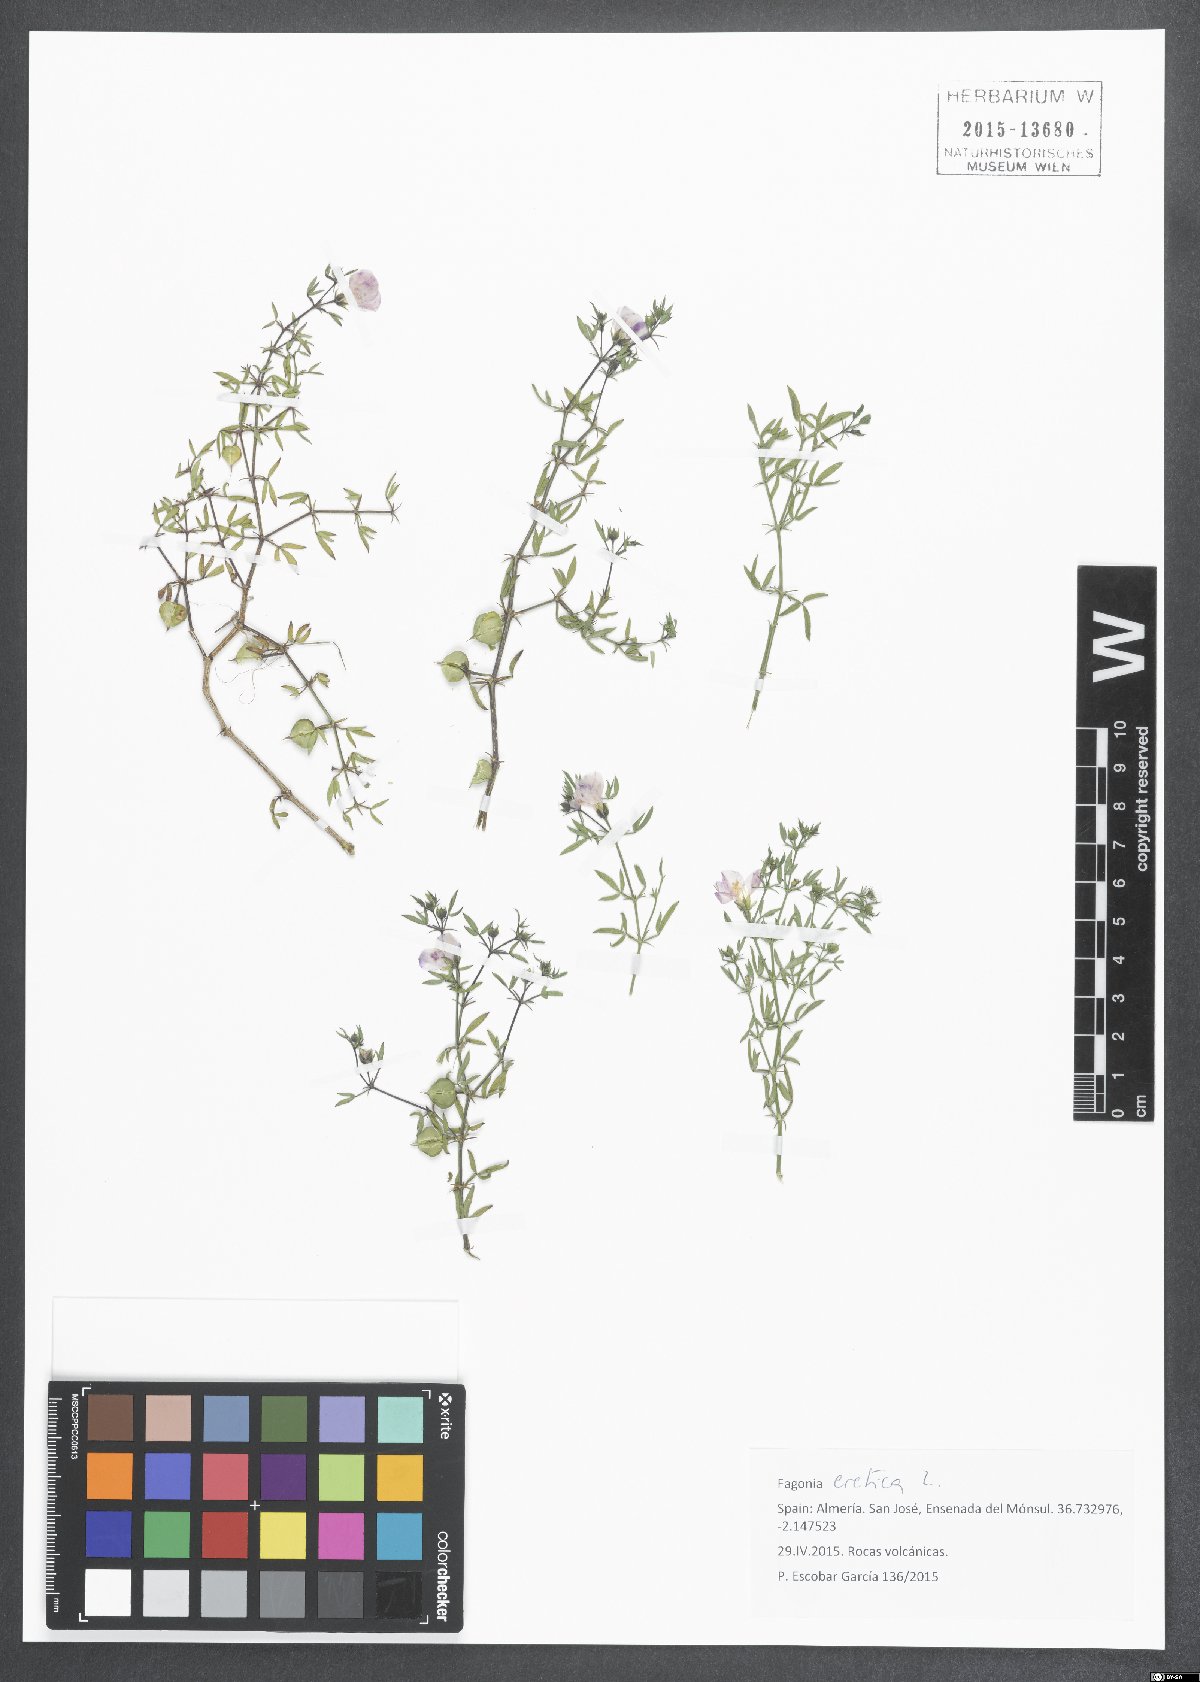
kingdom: Plantae
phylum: Tracheophyta
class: Magnoliopsida
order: Zygophyllales
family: Zygophyllaceae
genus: Fagonia
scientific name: Fagonia cretica
